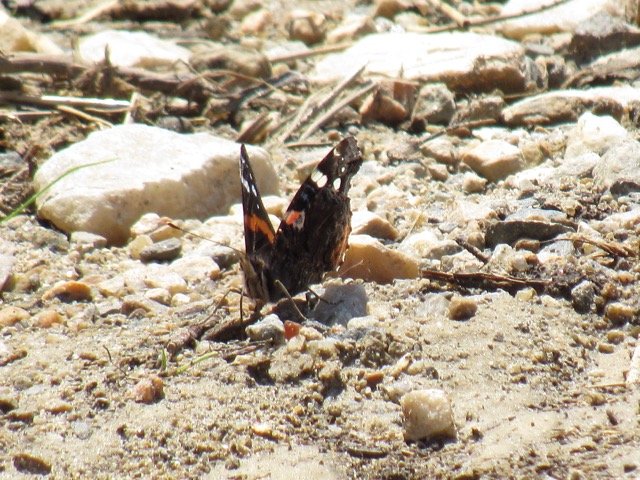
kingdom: Animalia
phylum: Arthropoda
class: Insecta
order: Lepidoptera
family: Nymphalidae
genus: Vanessa
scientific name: Vanessa atalanta
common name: Red Admiral
